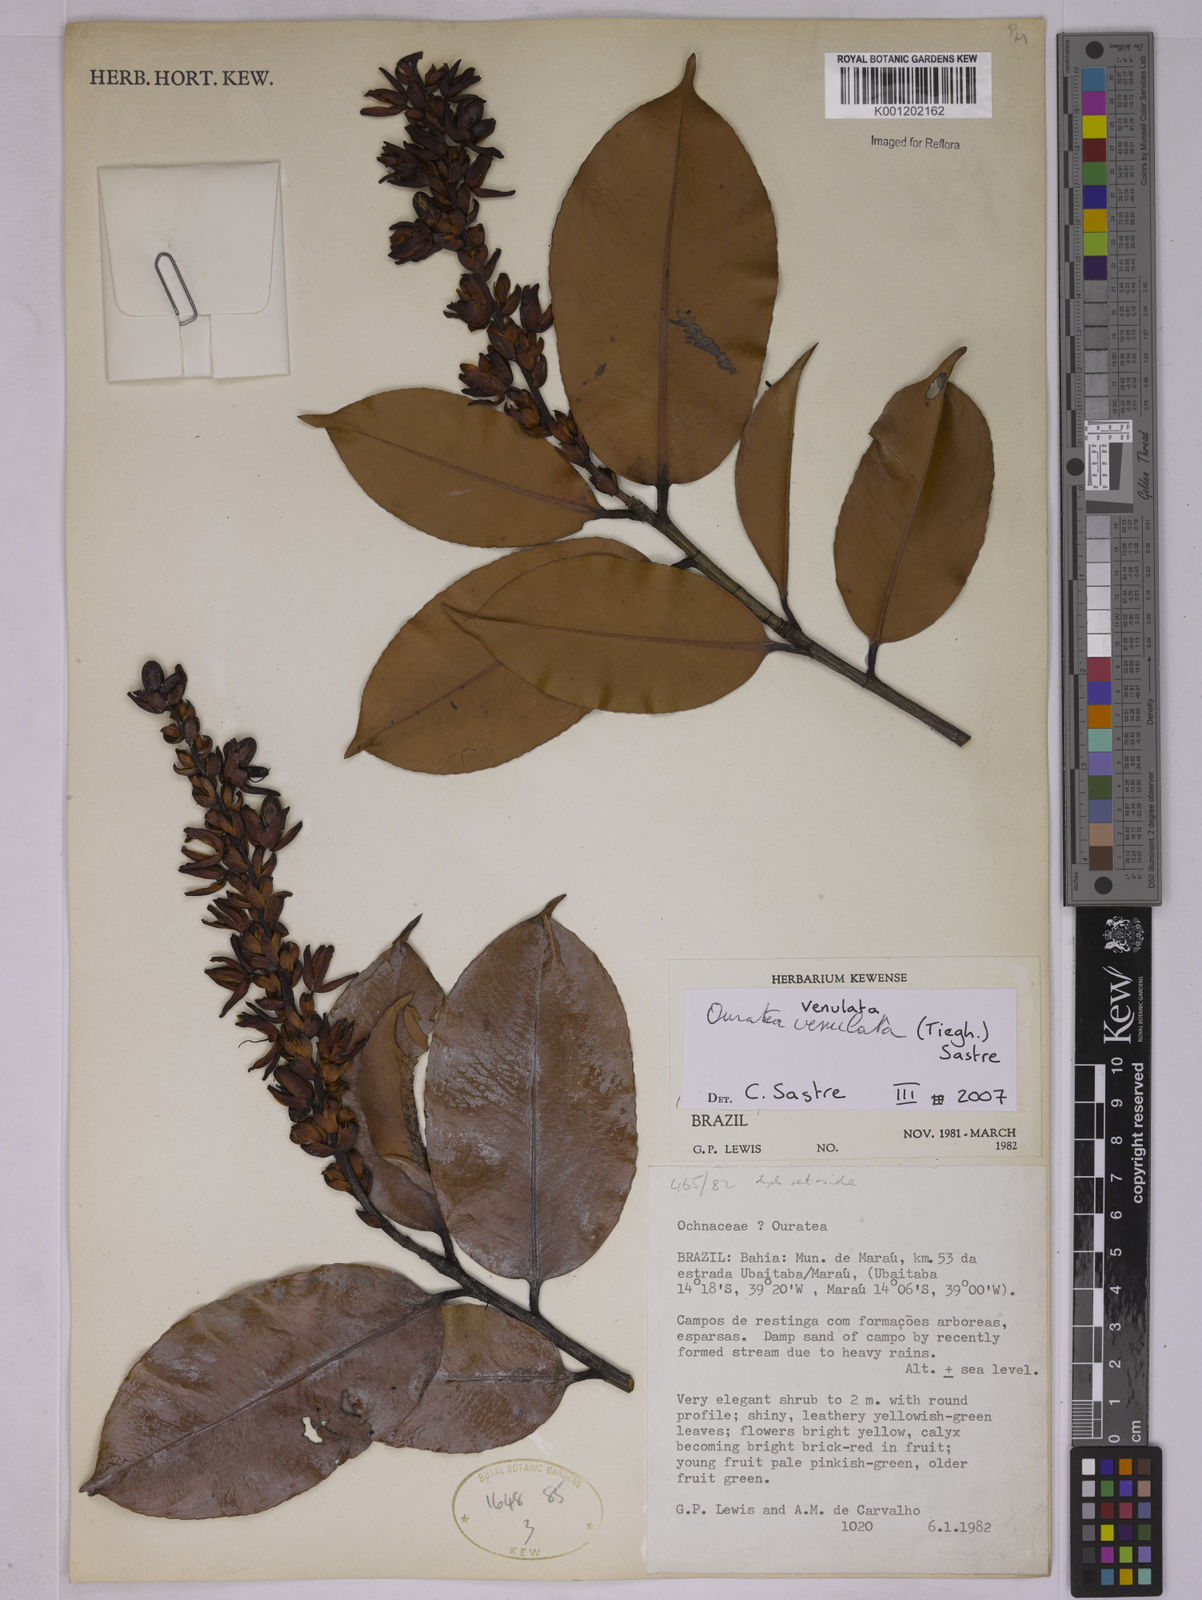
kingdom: Plantae
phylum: Tracheophyta
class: Magnoliopsida
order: Malpighiales
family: Ochnaceae
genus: Ouratea
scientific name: Ouratea venulata
